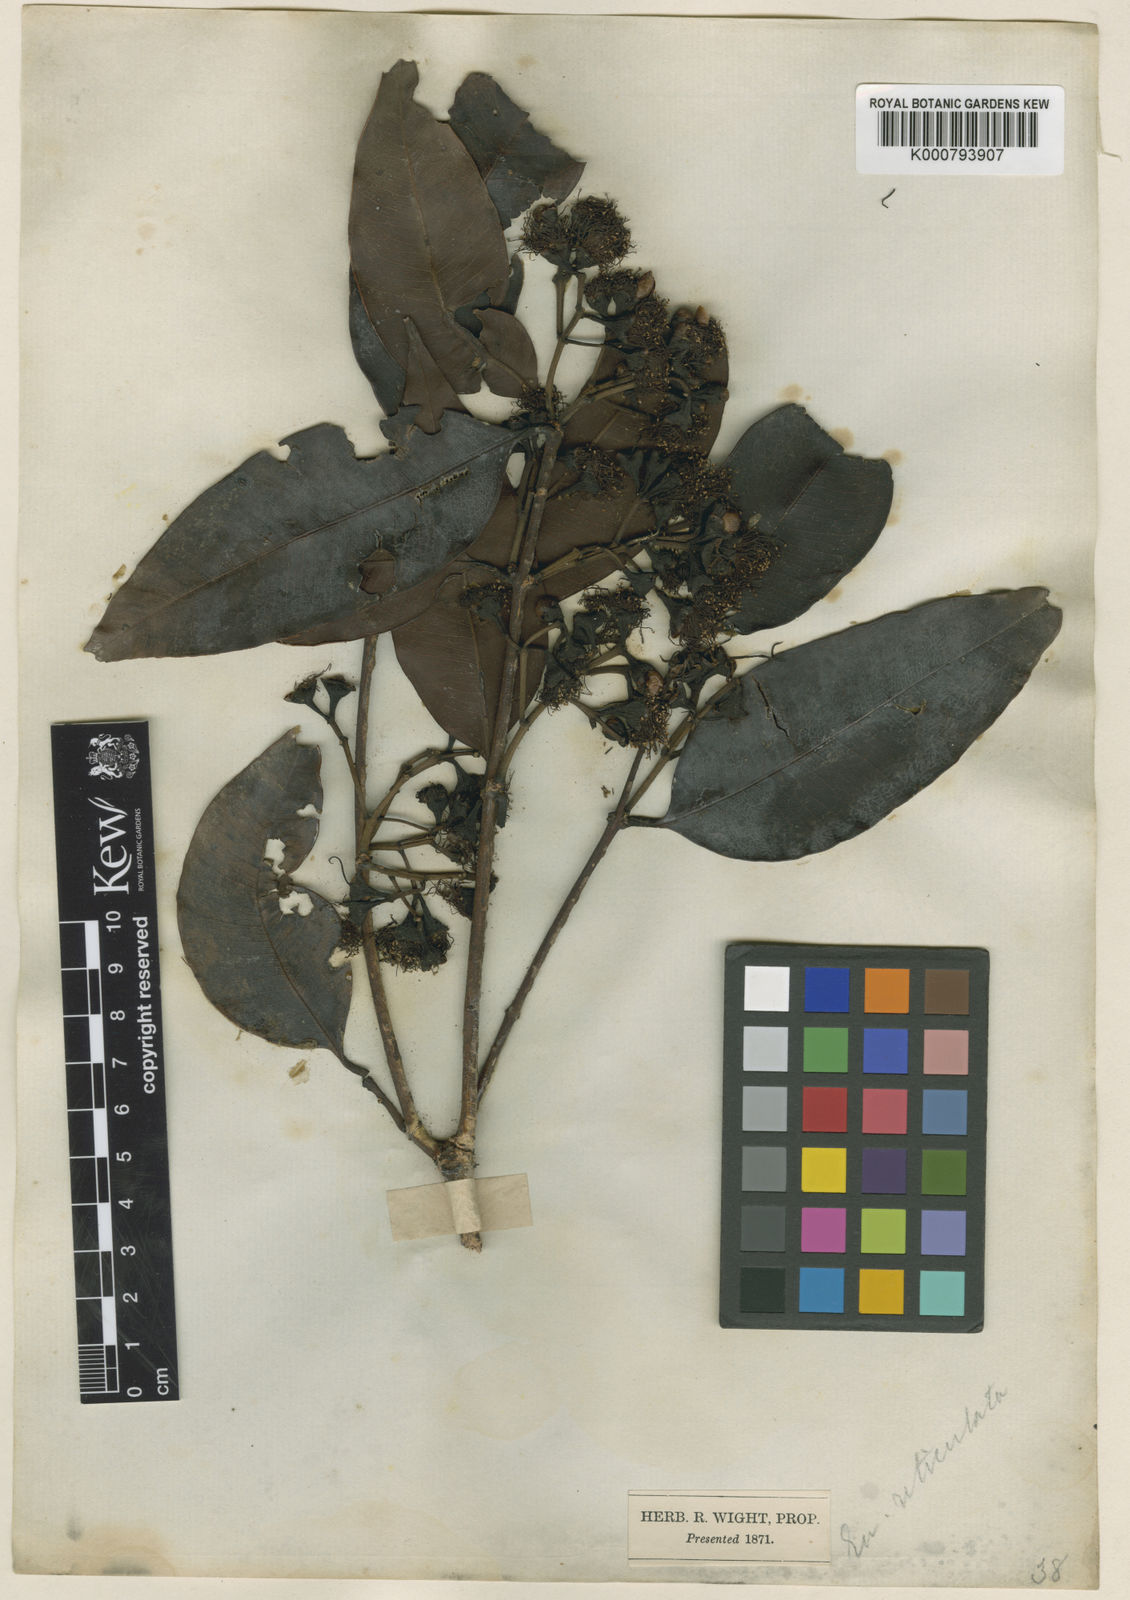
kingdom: Plantae
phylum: Tracheophyta
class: Magnoliopsida
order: Myrtales
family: Myrtaceae
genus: Syzygium
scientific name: Syzygium
